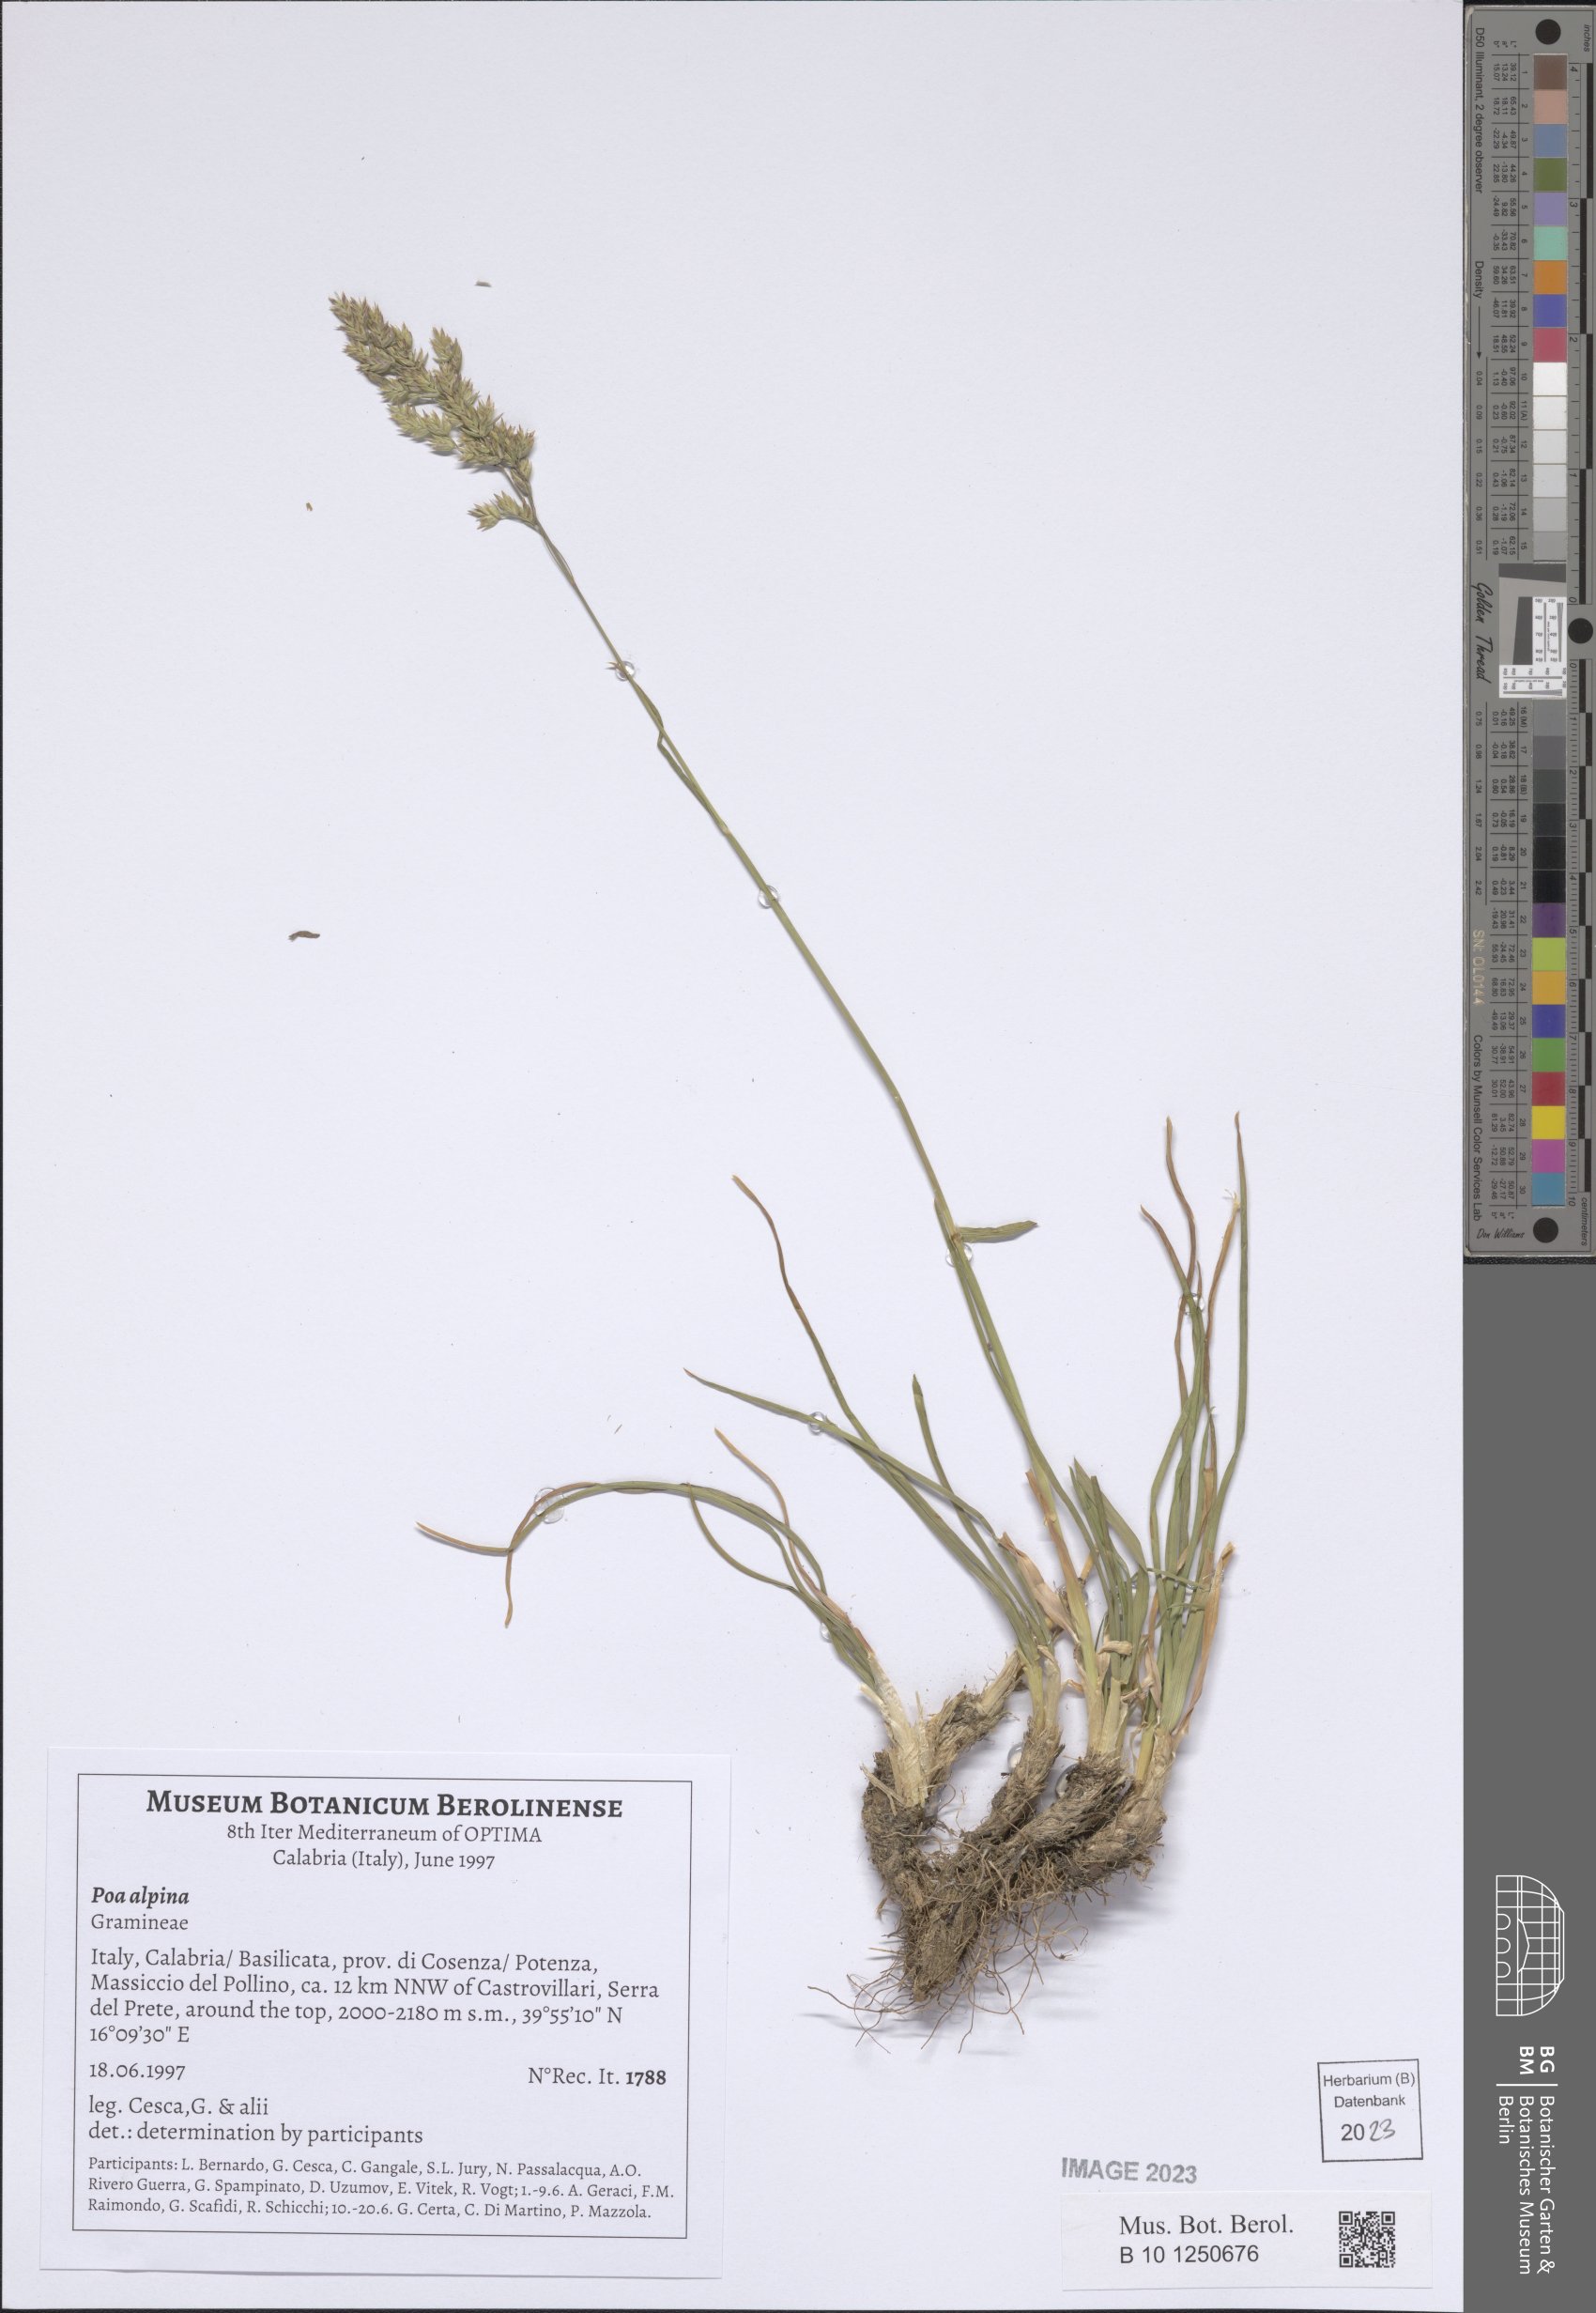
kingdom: Plantae
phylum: Tracheophyta
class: Liliopsida
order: Poales
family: Poaceae
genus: Poa
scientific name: Poa alpina
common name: Alpine bluegrass
